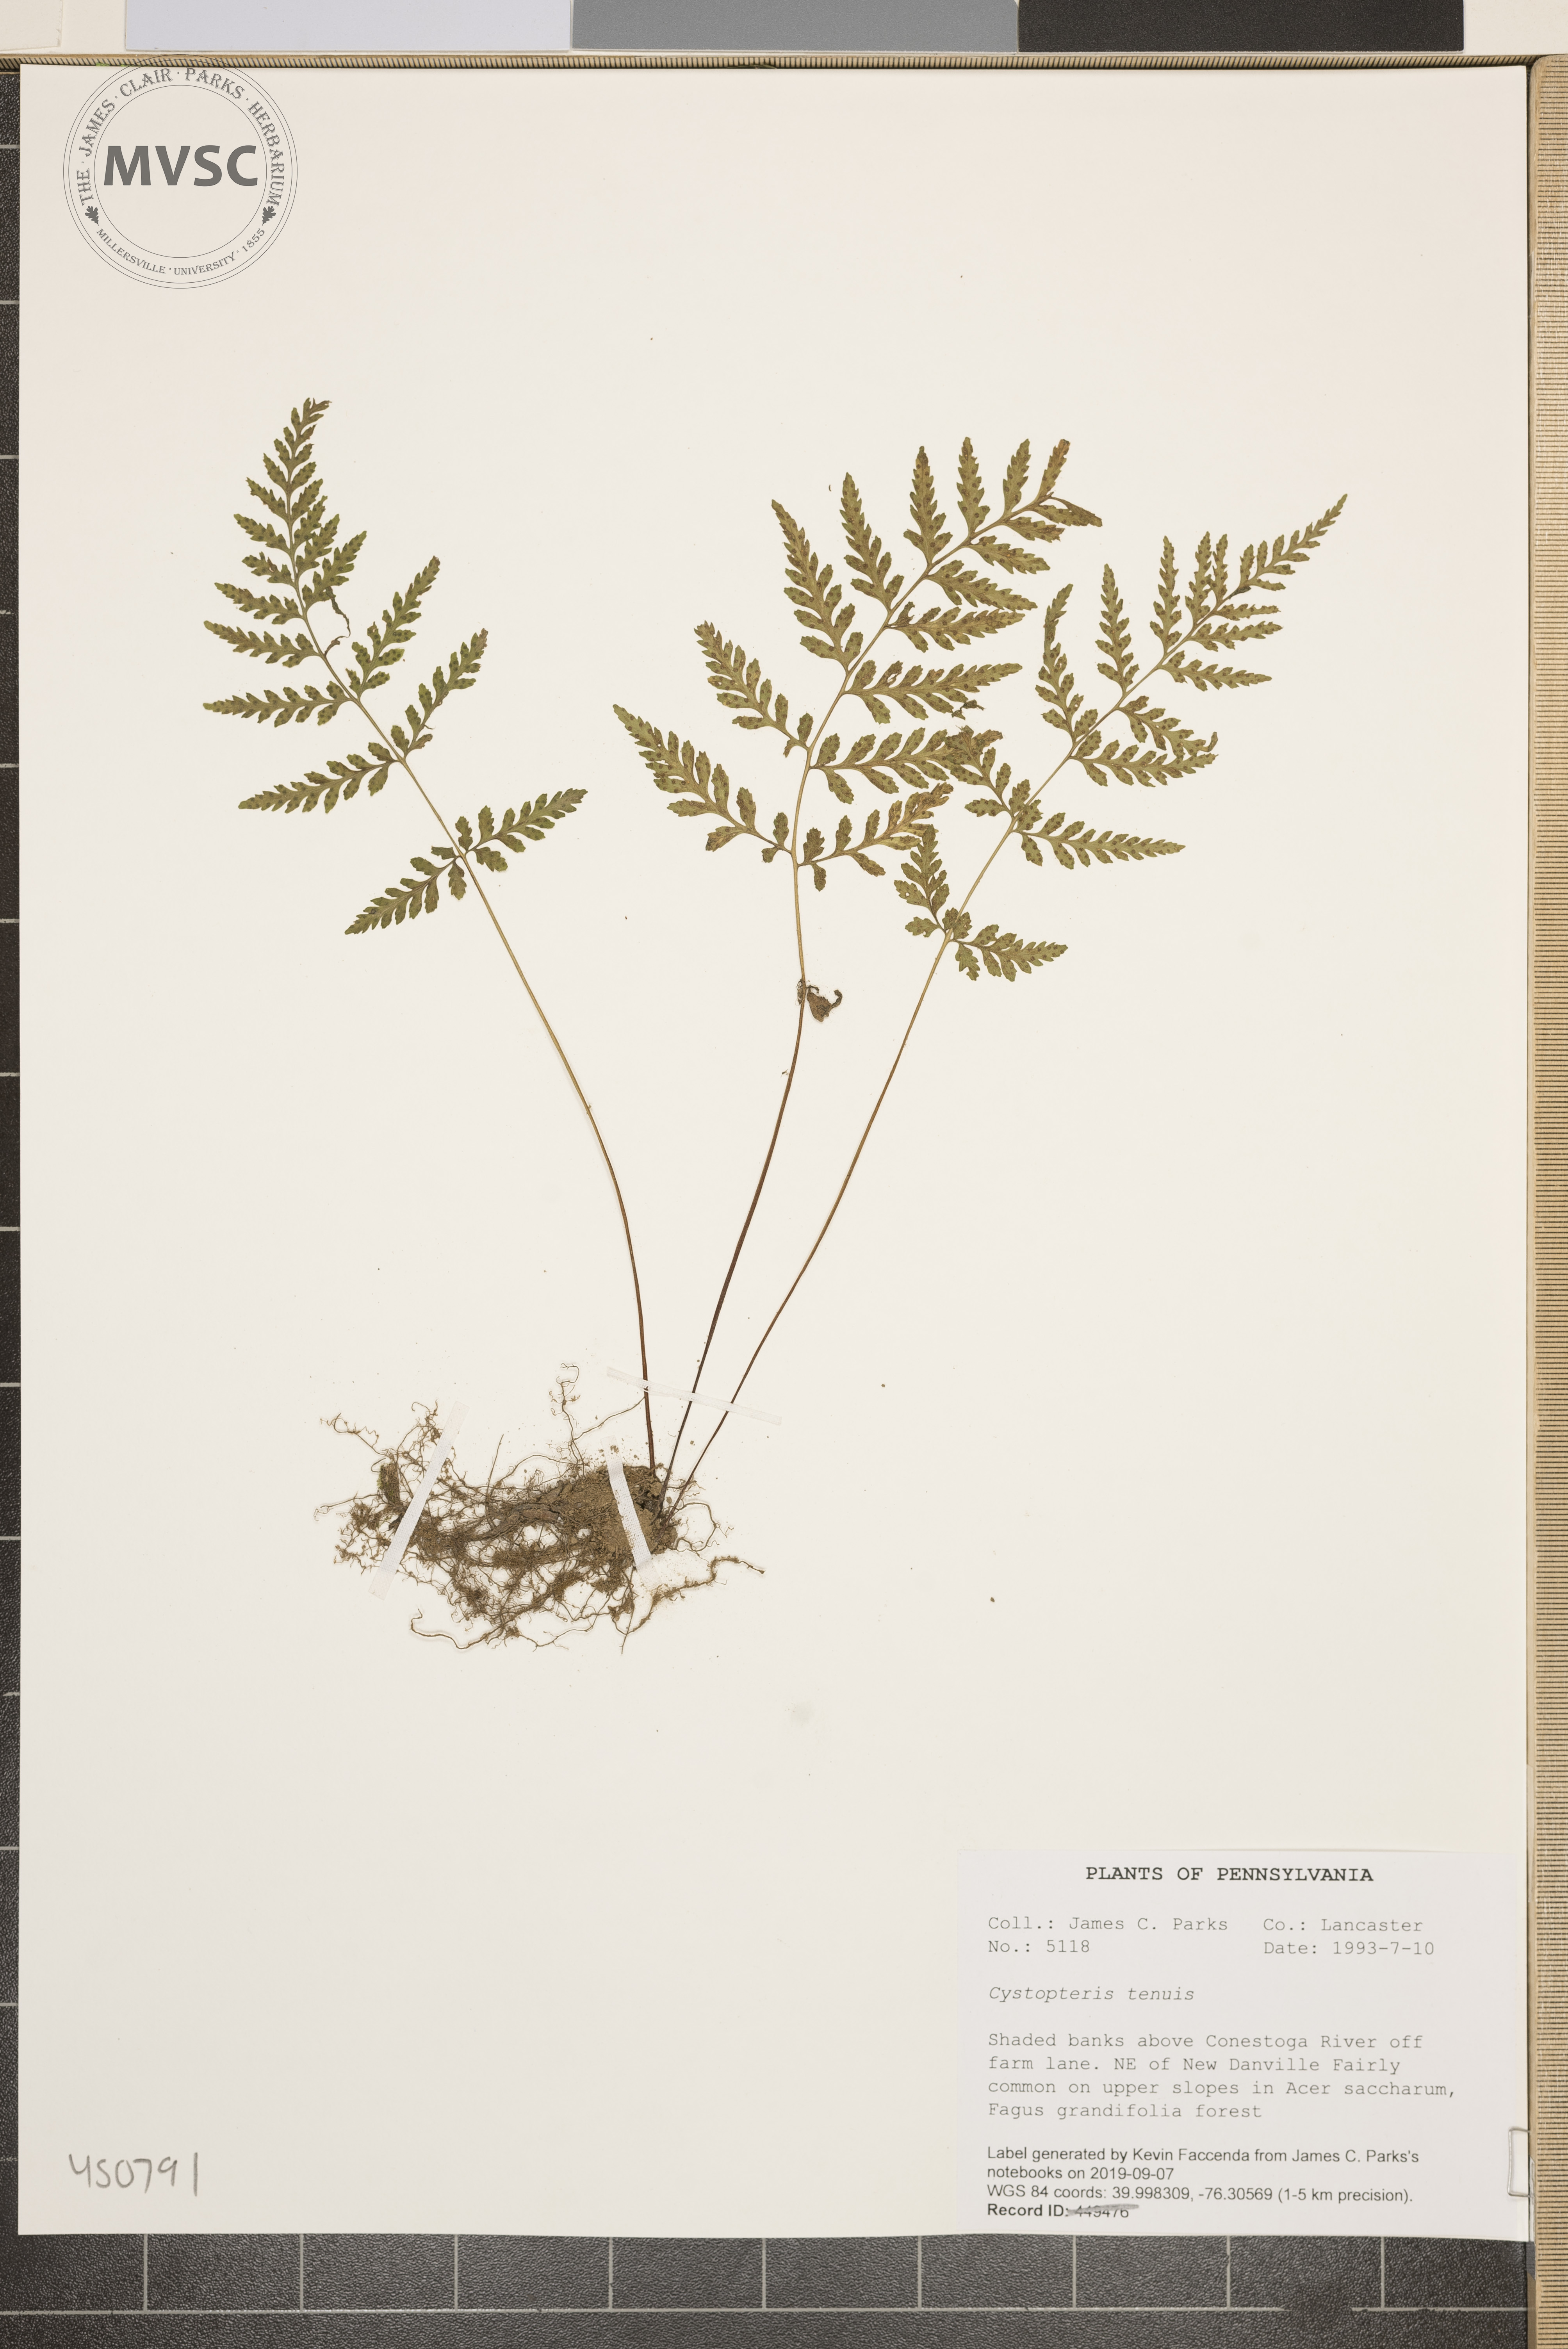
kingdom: Plantae
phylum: Tracheophyta
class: Polypodiopsida
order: Polypodiales
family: Cystopteridaceae
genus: Cystopteris
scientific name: Cystopteris tenuis
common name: Mackay's brittle fern
